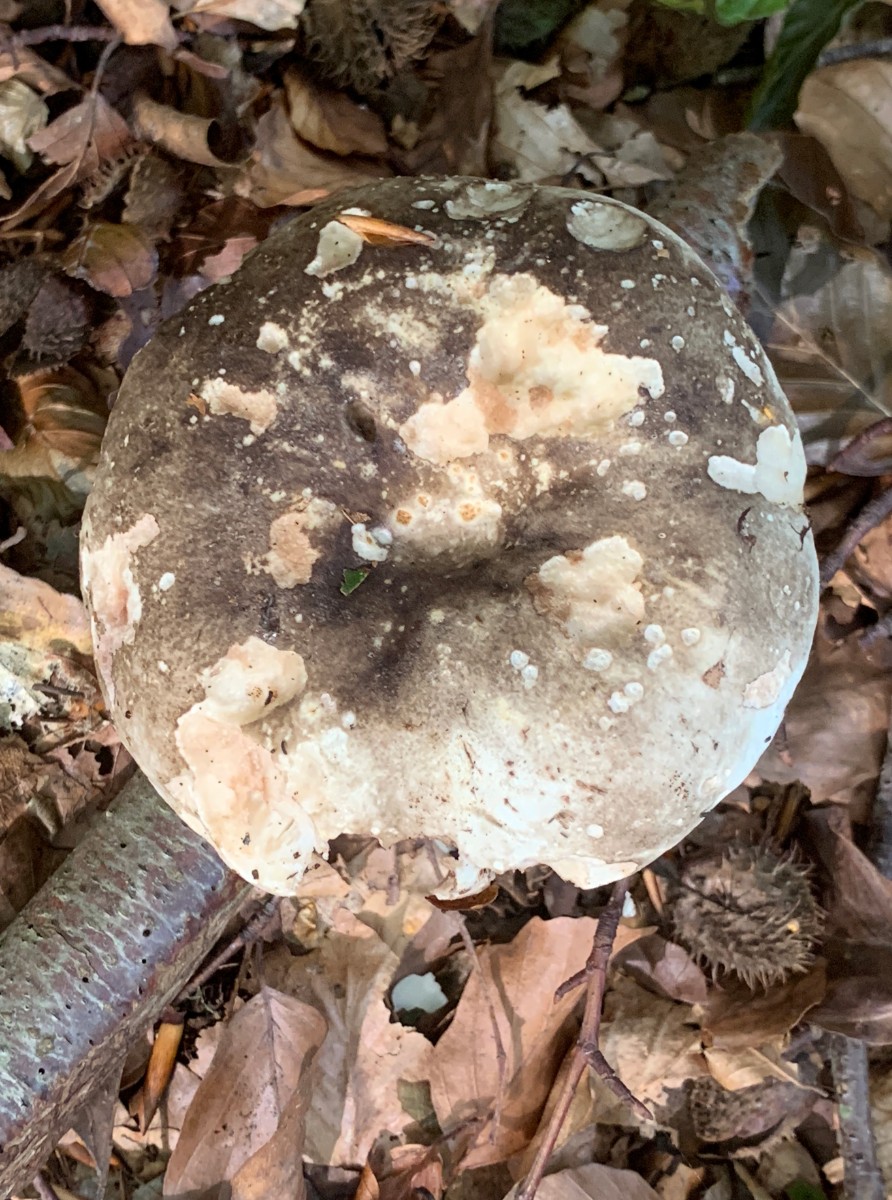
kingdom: Fungi
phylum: Basidiomycota
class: Agaricomycetes
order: Russulales
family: Russulaceae
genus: Russula
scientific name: Russula adusta
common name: sværtende skørhat
